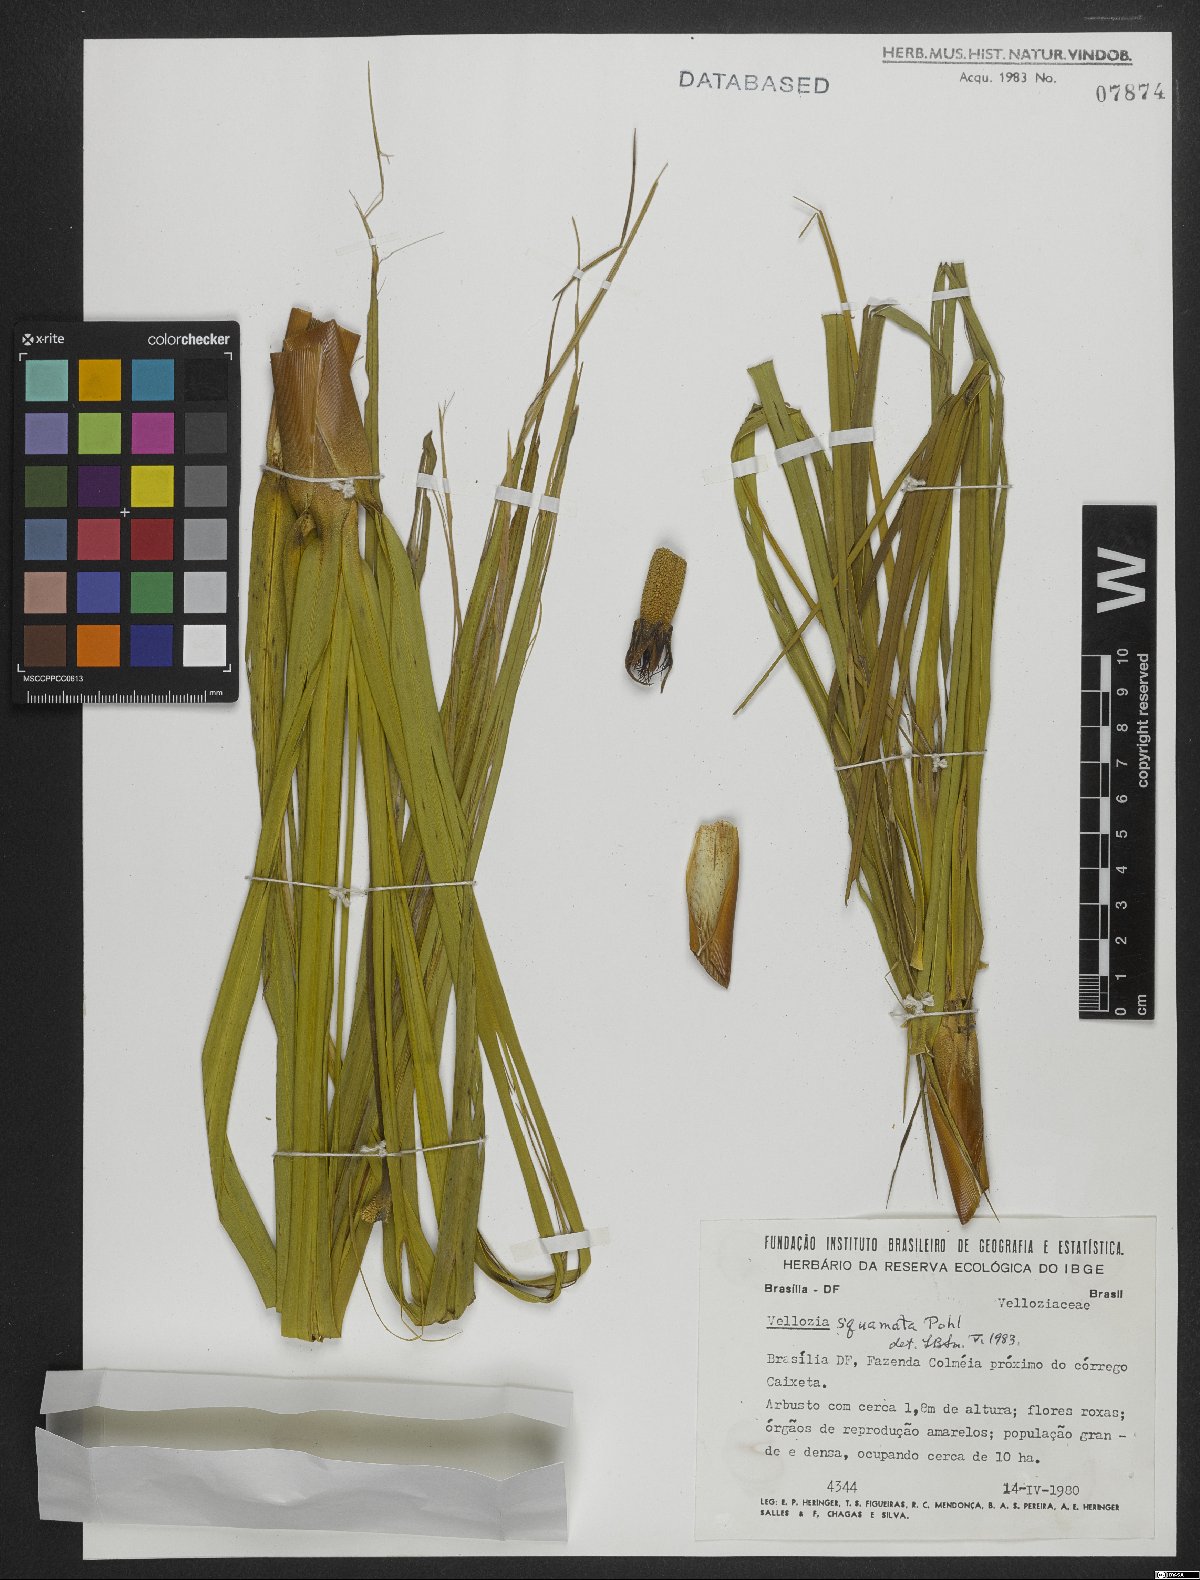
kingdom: Plantae
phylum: Tracheophyta
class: Liliopsida
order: Pandanales
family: Velloziaceae
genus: Vellozia
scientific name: Vellozia squamata
